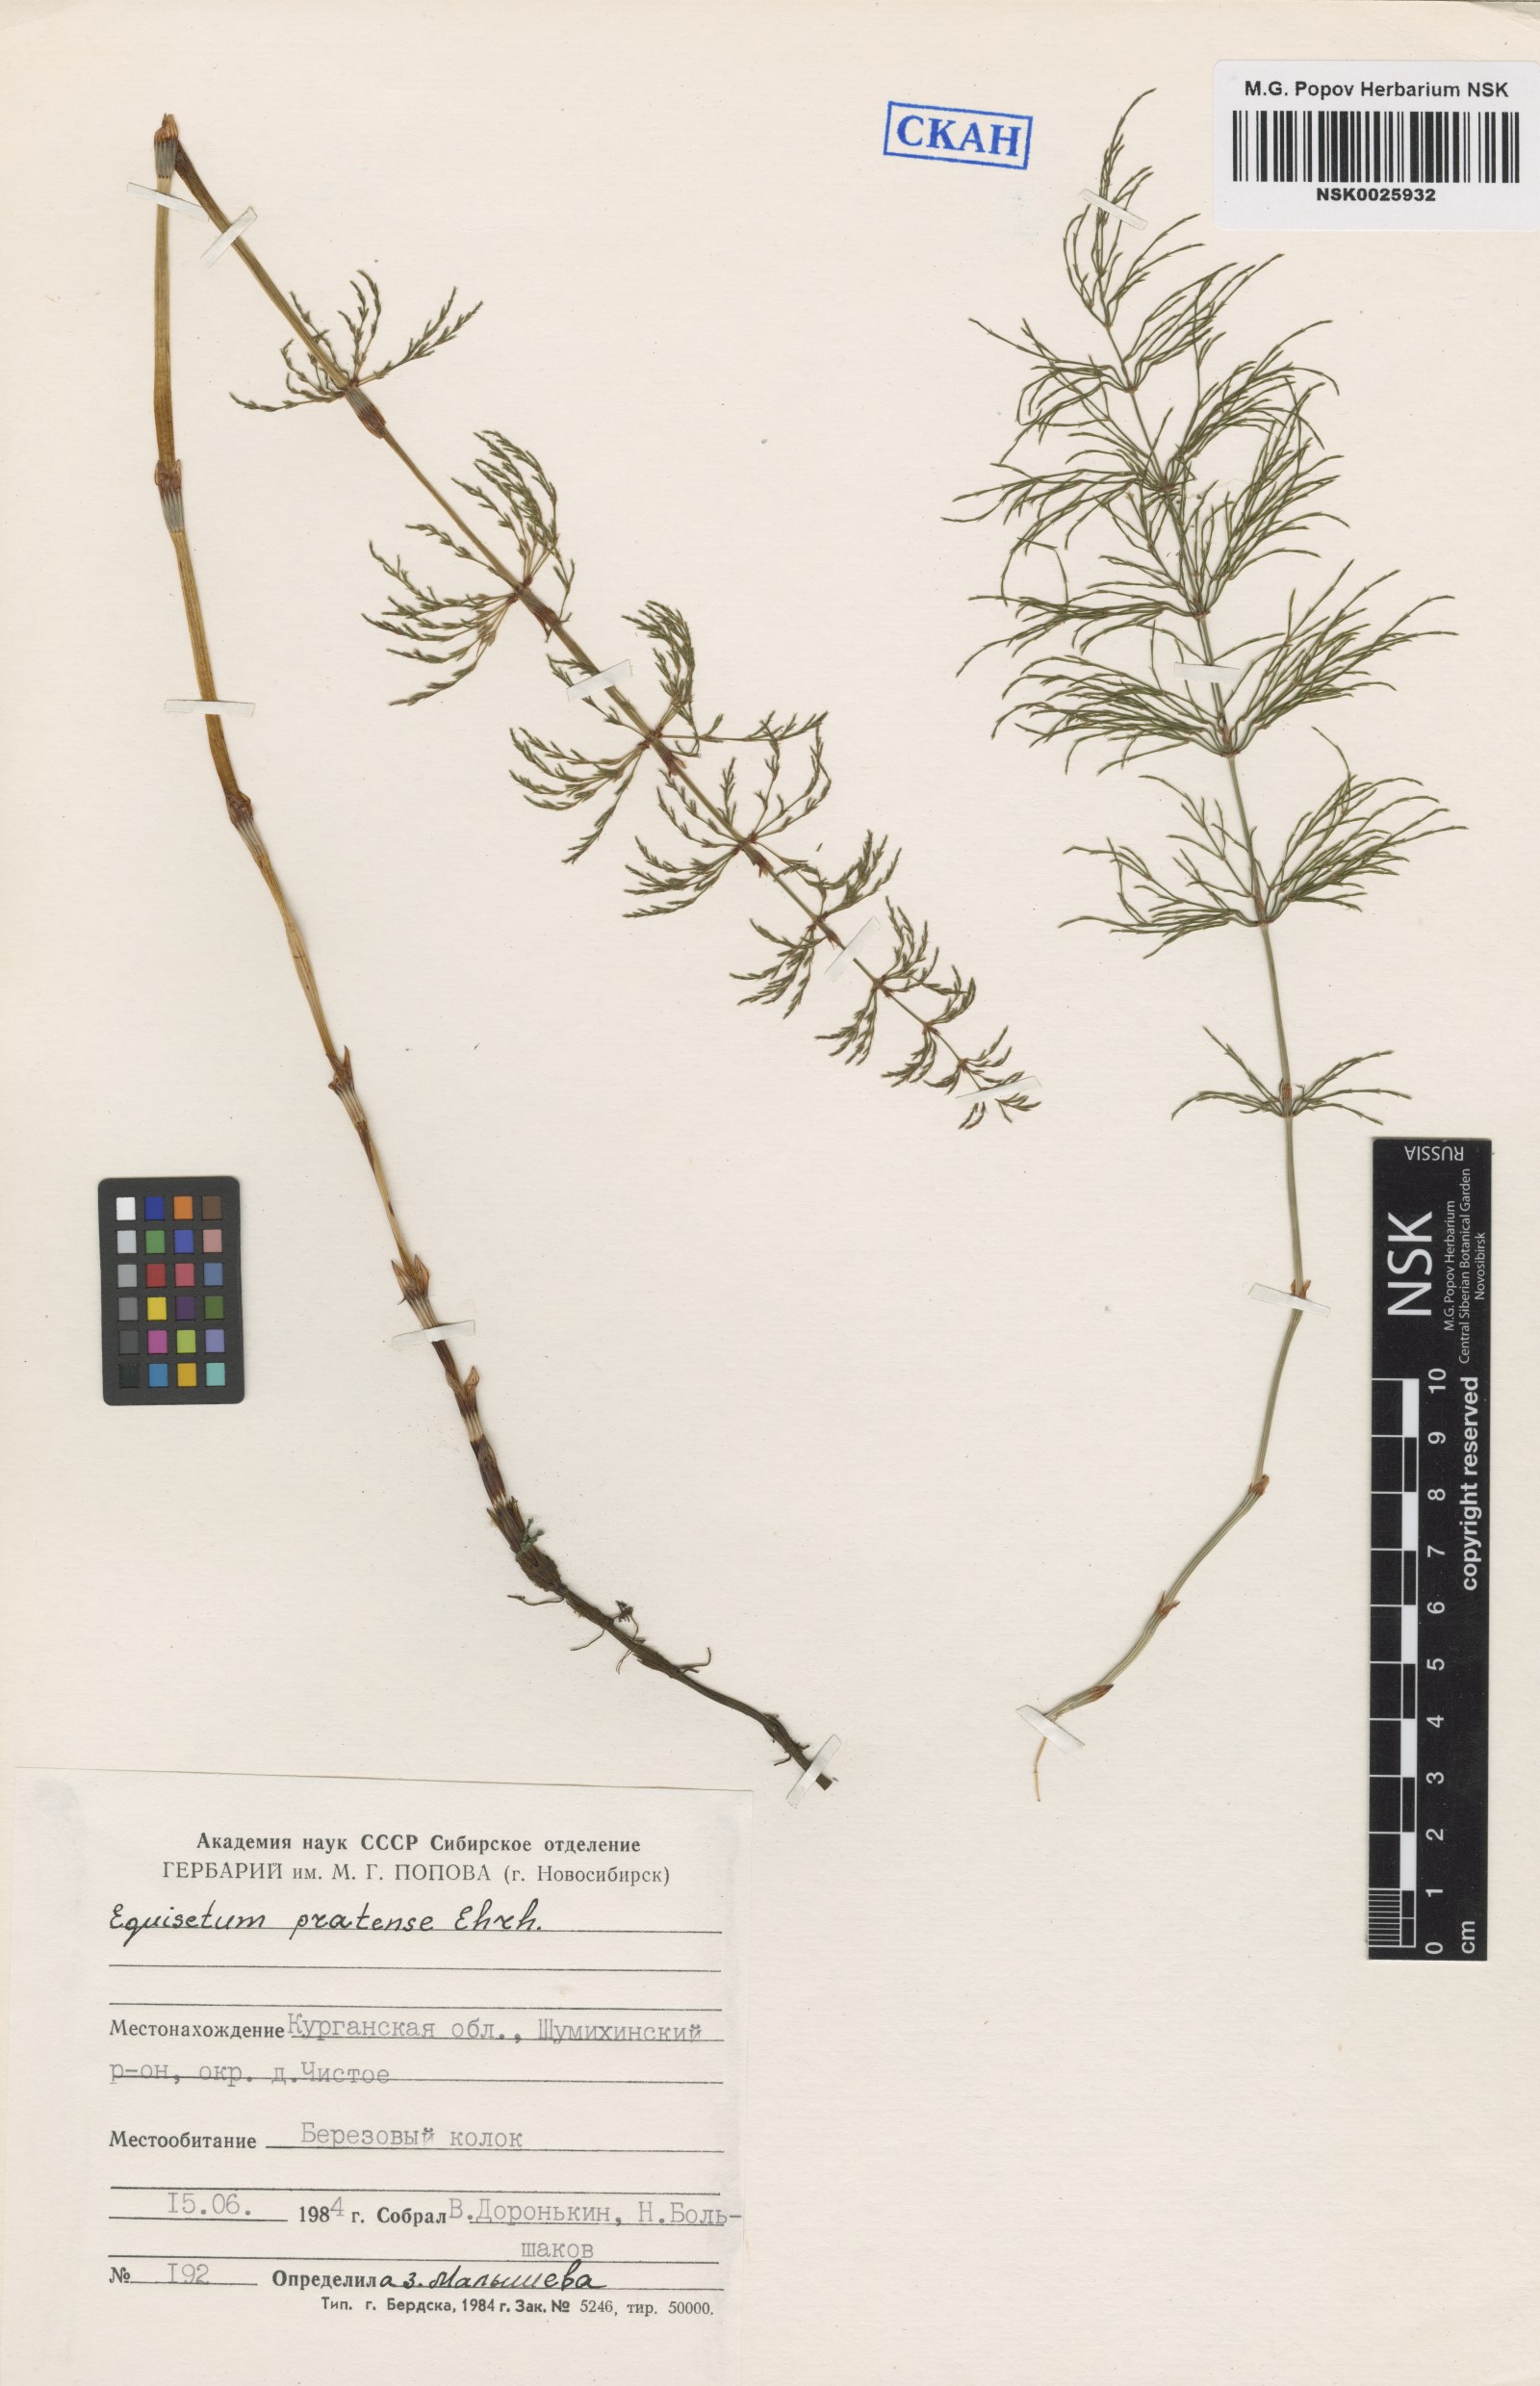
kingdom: Plantae
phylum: Tracheophyta
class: Polypodiopsida
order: Equisetales
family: Equisetaceae
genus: Equisetum
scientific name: Equisetum pratense
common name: Meadow horsetail
